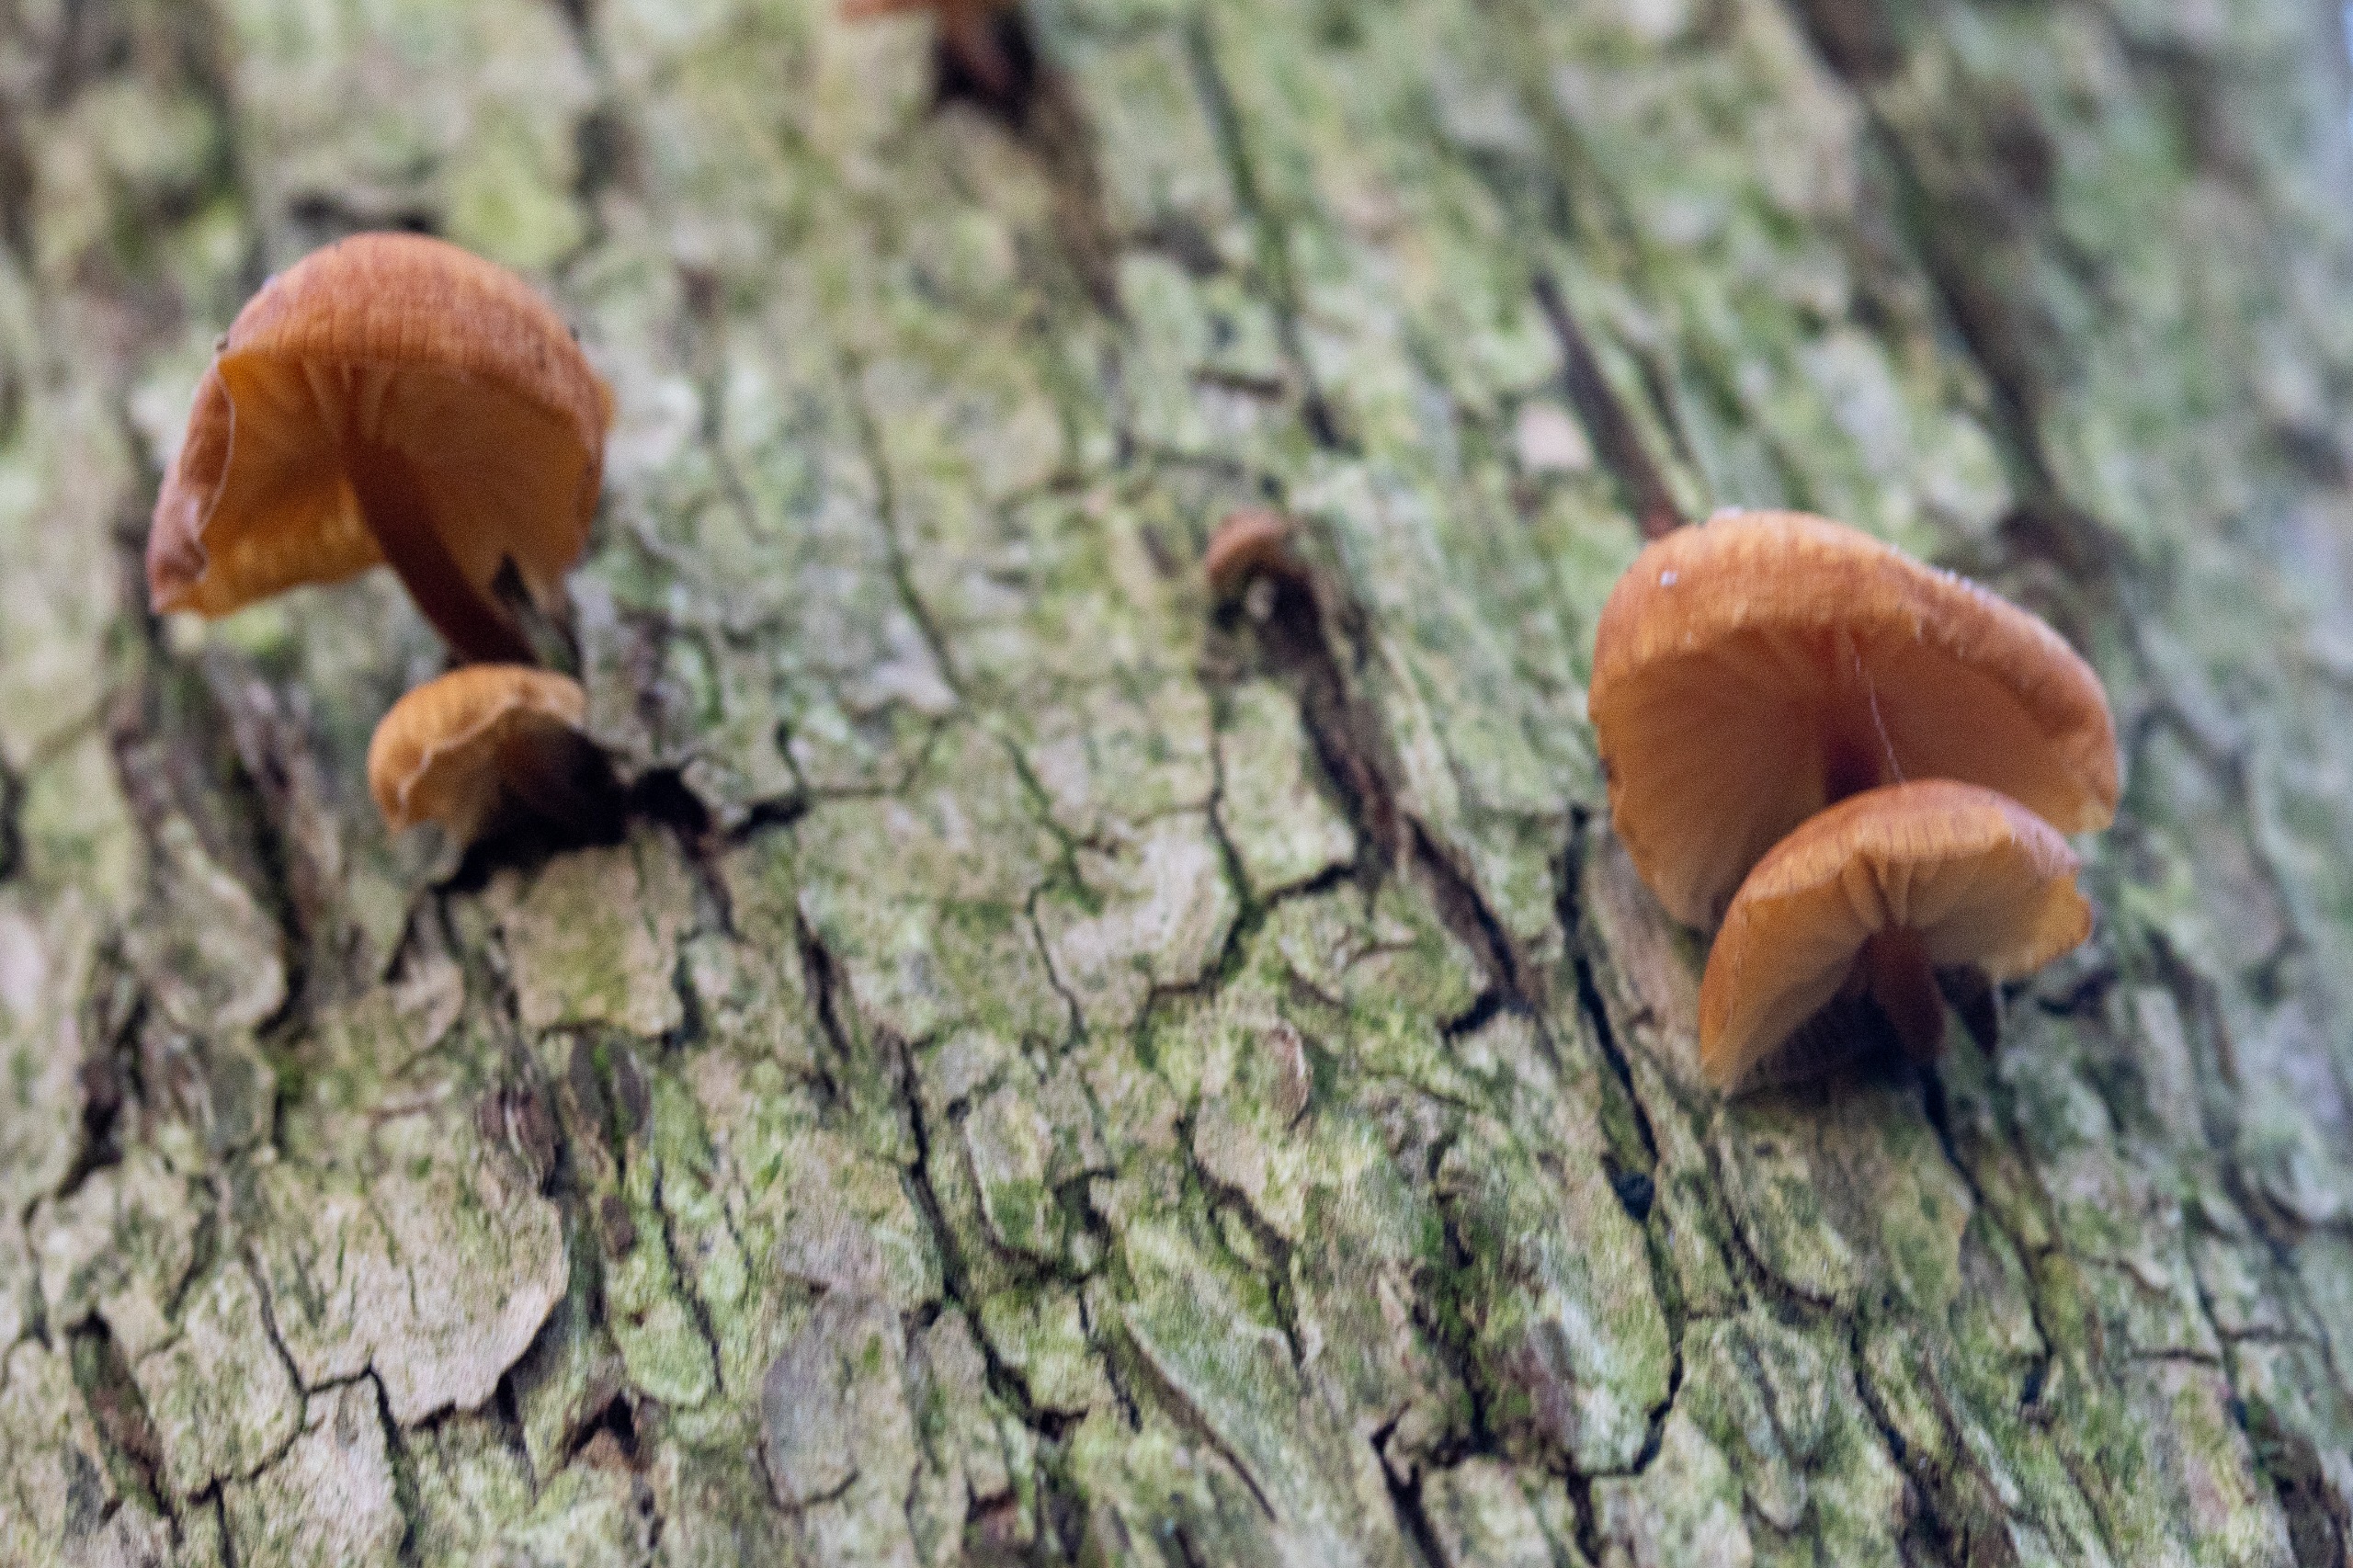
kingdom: Fungi
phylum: Basidiomycota
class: Agaricomycetes
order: Agaricales
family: Physalacriaceae
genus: Flammulina
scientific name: Flammulina velutipes
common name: Gul fløjlsfod
